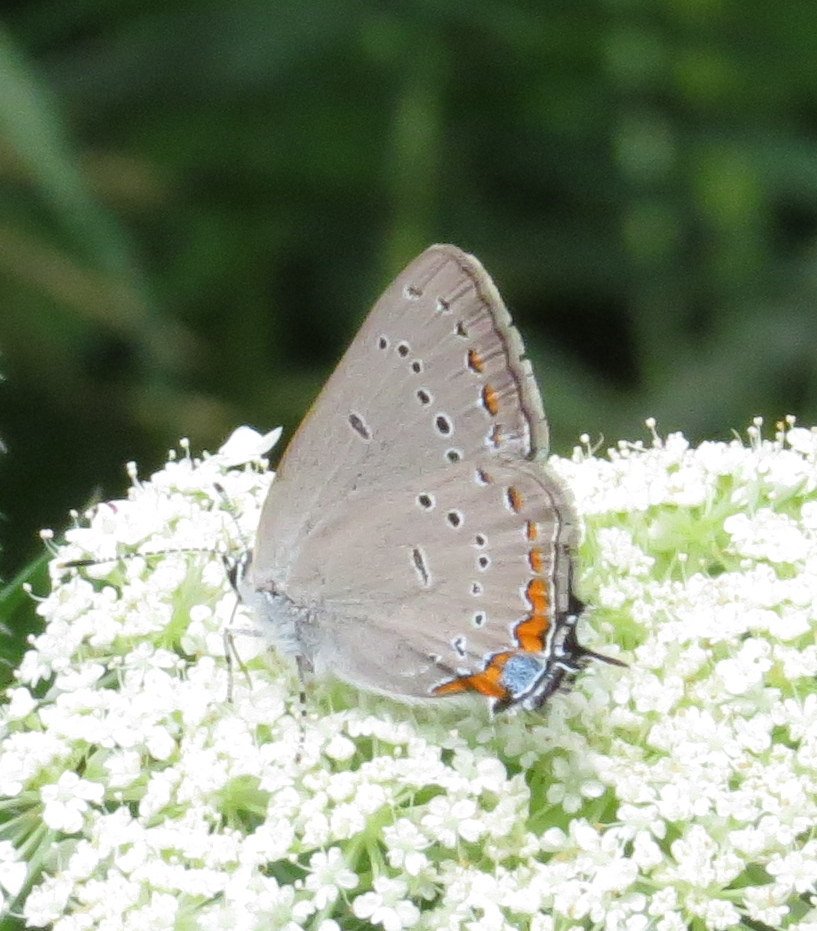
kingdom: Animalia
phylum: Arthropoda
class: Insecta
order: Lepidoptera
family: Lycaenidae
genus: Strymon
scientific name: Strymon acadica
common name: Acadian Hairstreak
